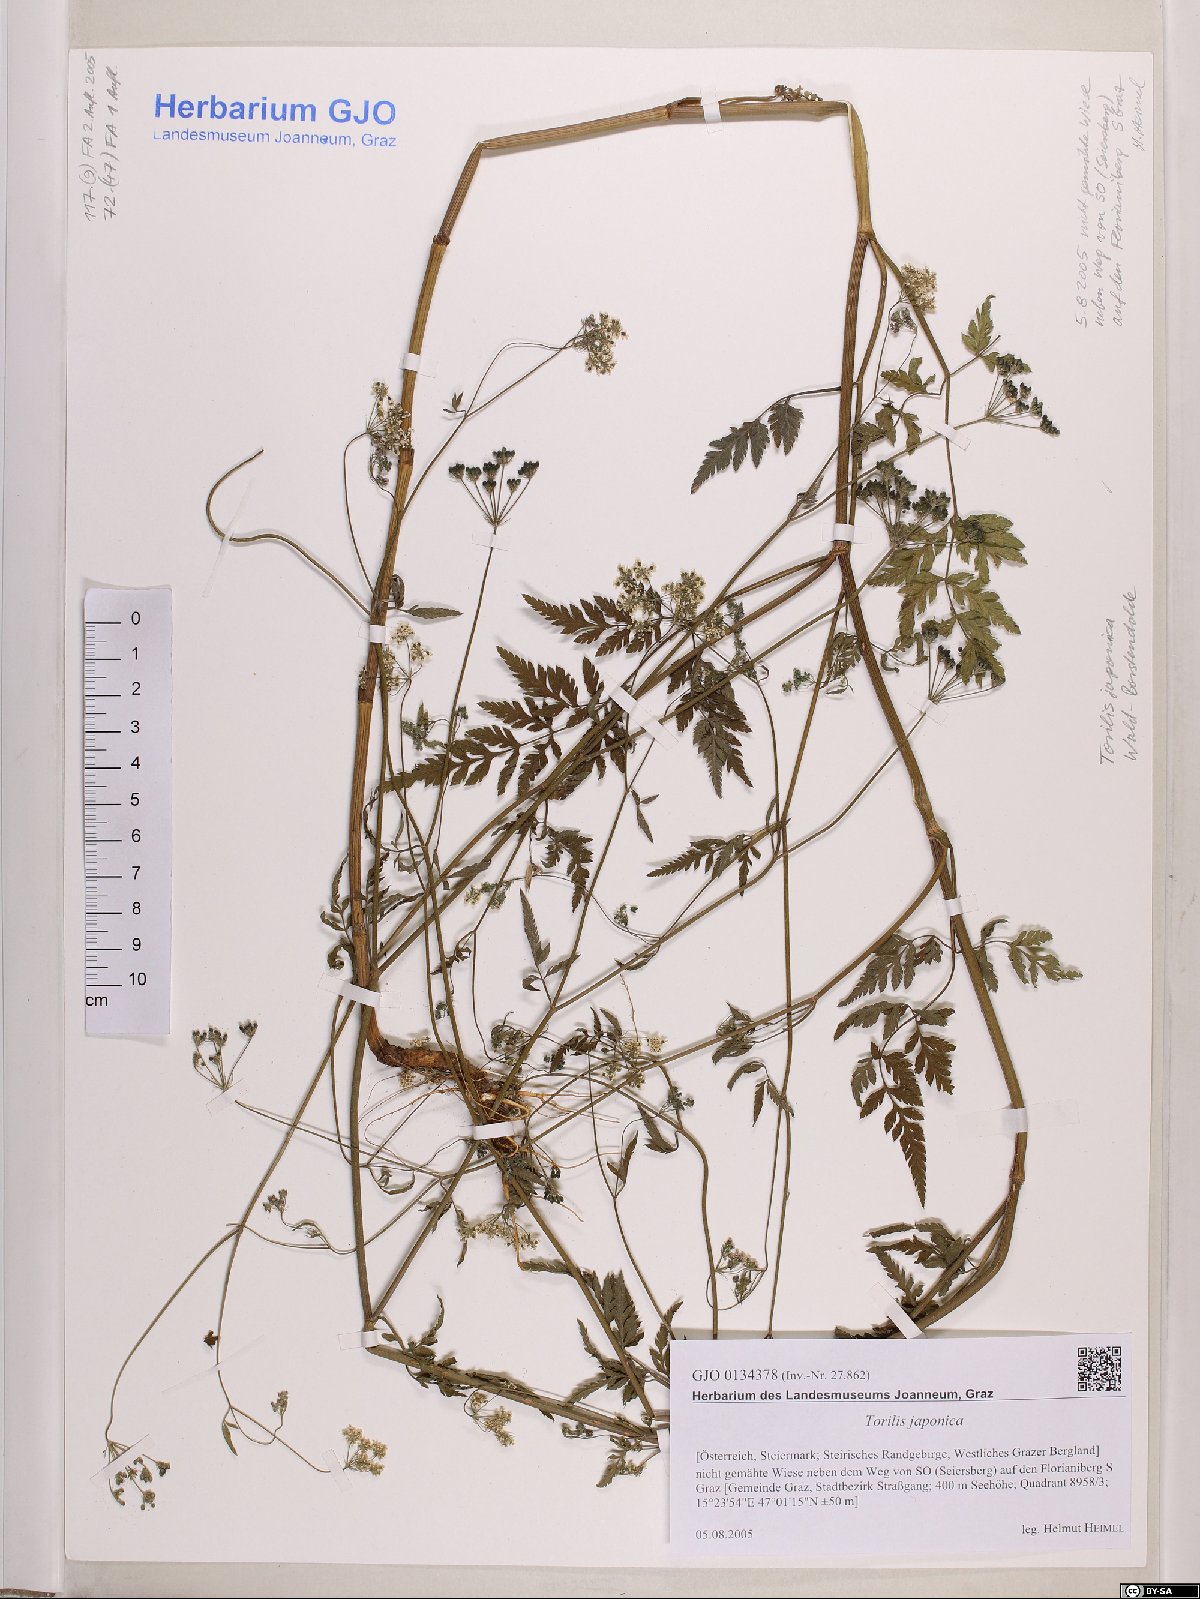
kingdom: Plantae
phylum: Tracheophyta
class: Magnoliopsida
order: Apiales
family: Apiaceae
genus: Torilis
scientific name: Torilis japonica
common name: Upright hedge-parsley
